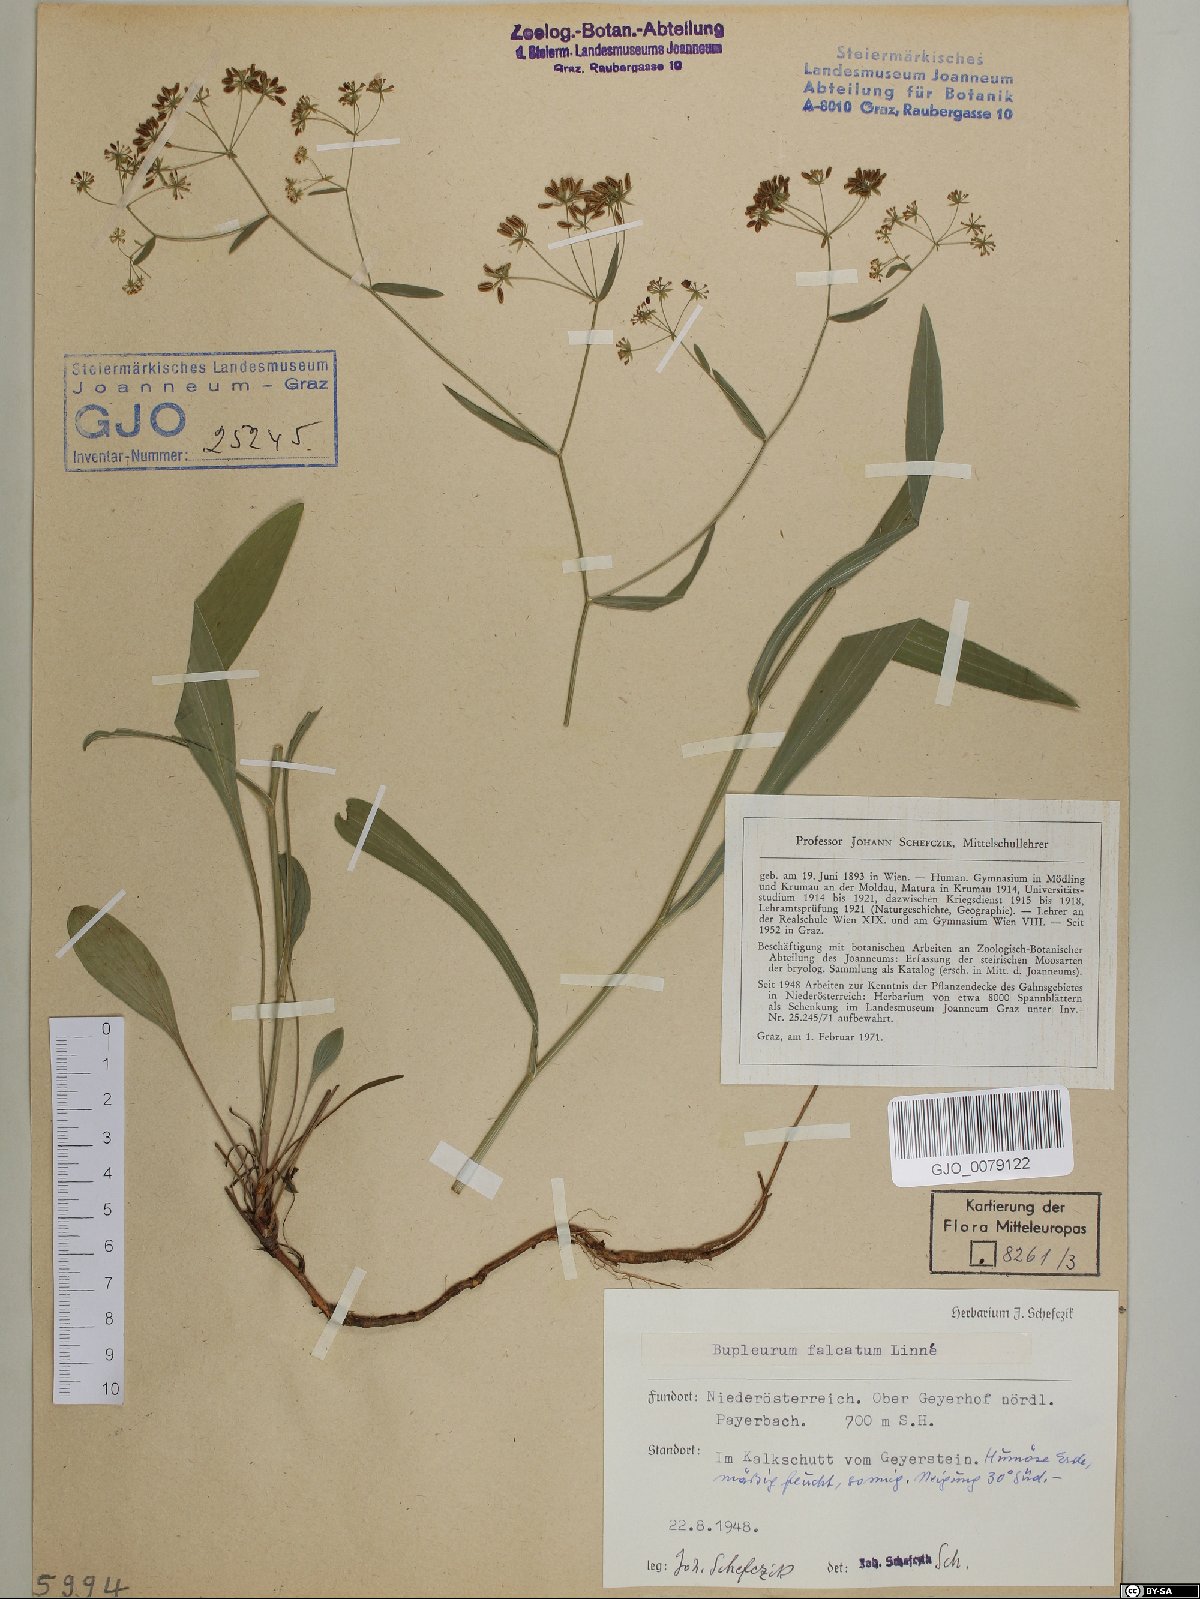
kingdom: Plantae
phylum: Tracheophyta
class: Magnoliopsida
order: Apiales
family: Apiaceae
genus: Bupleurum
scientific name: Bupleurum falcatum
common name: Sickle-leaved hare's-ear
